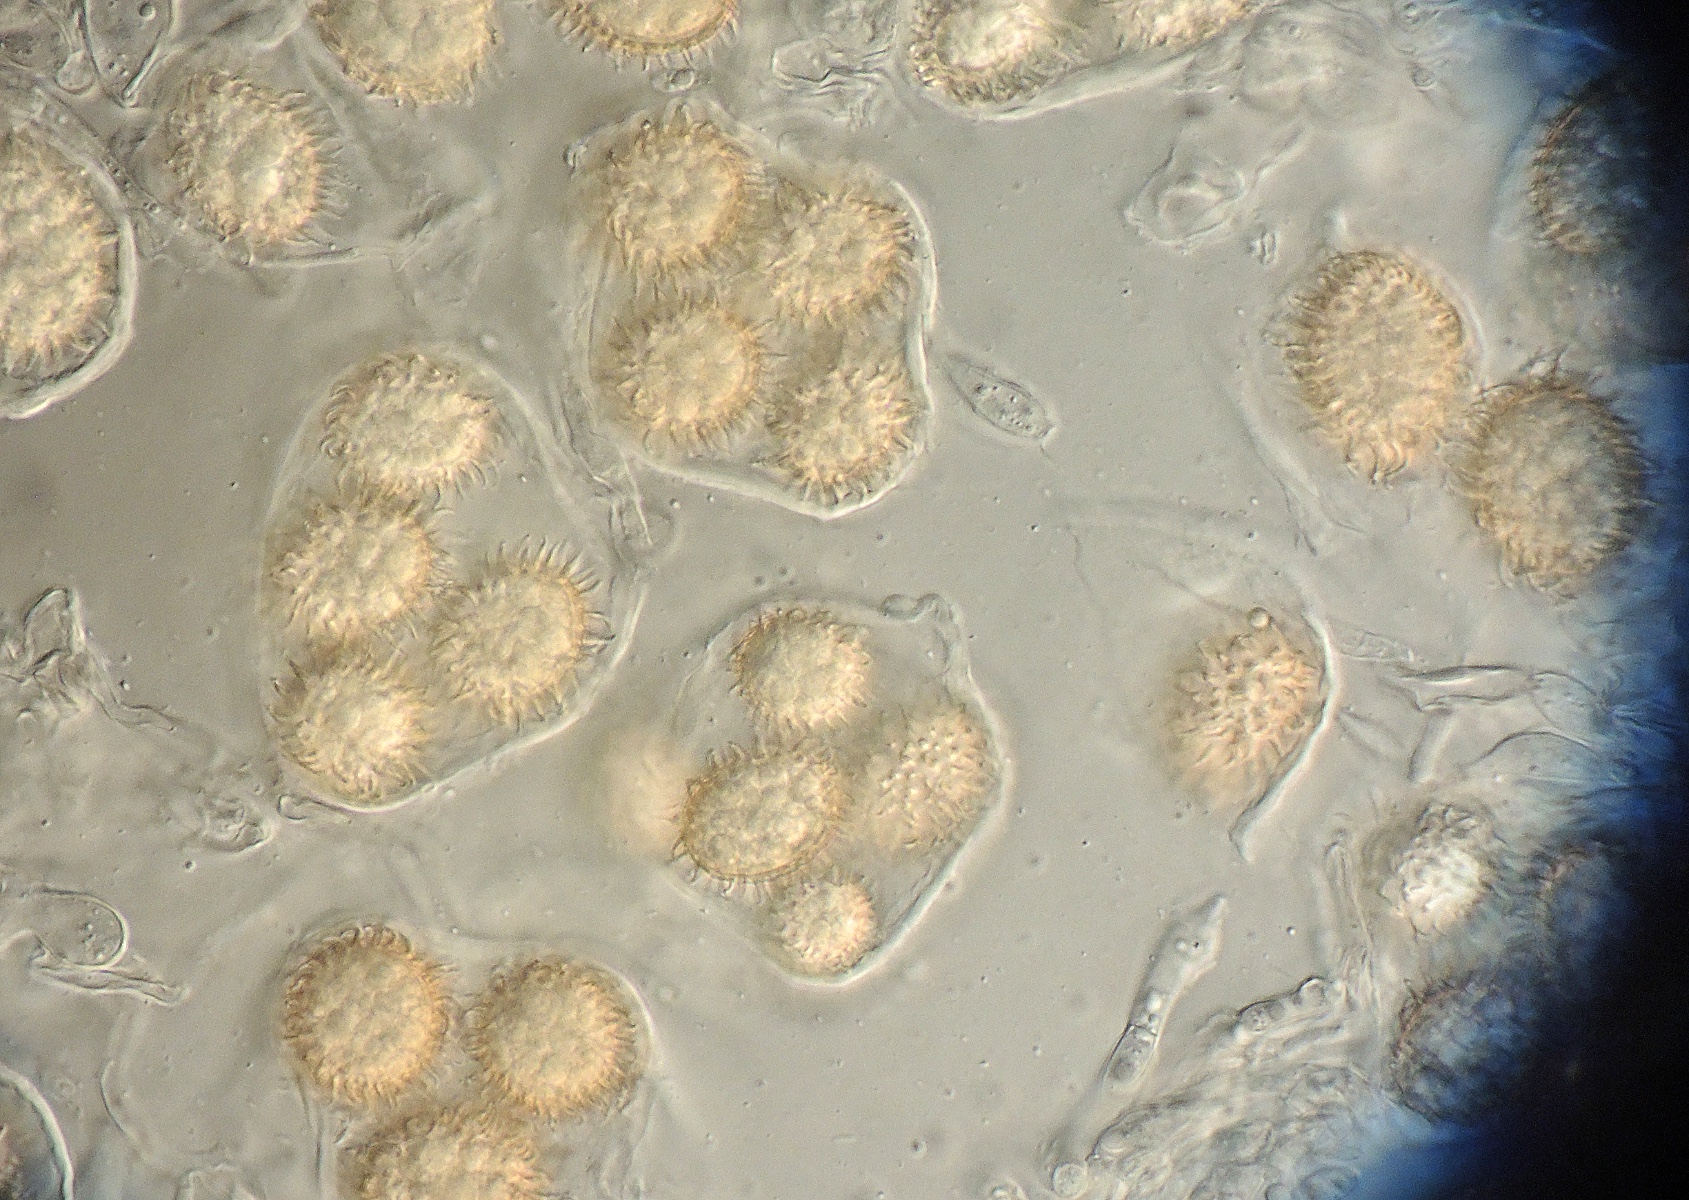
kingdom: Fungi
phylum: Ascomycota
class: Pezizomycetes
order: Pezizales
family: Tuberaceae
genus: Tuber
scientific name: Tuber rufum
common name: rødbrun trøffel
